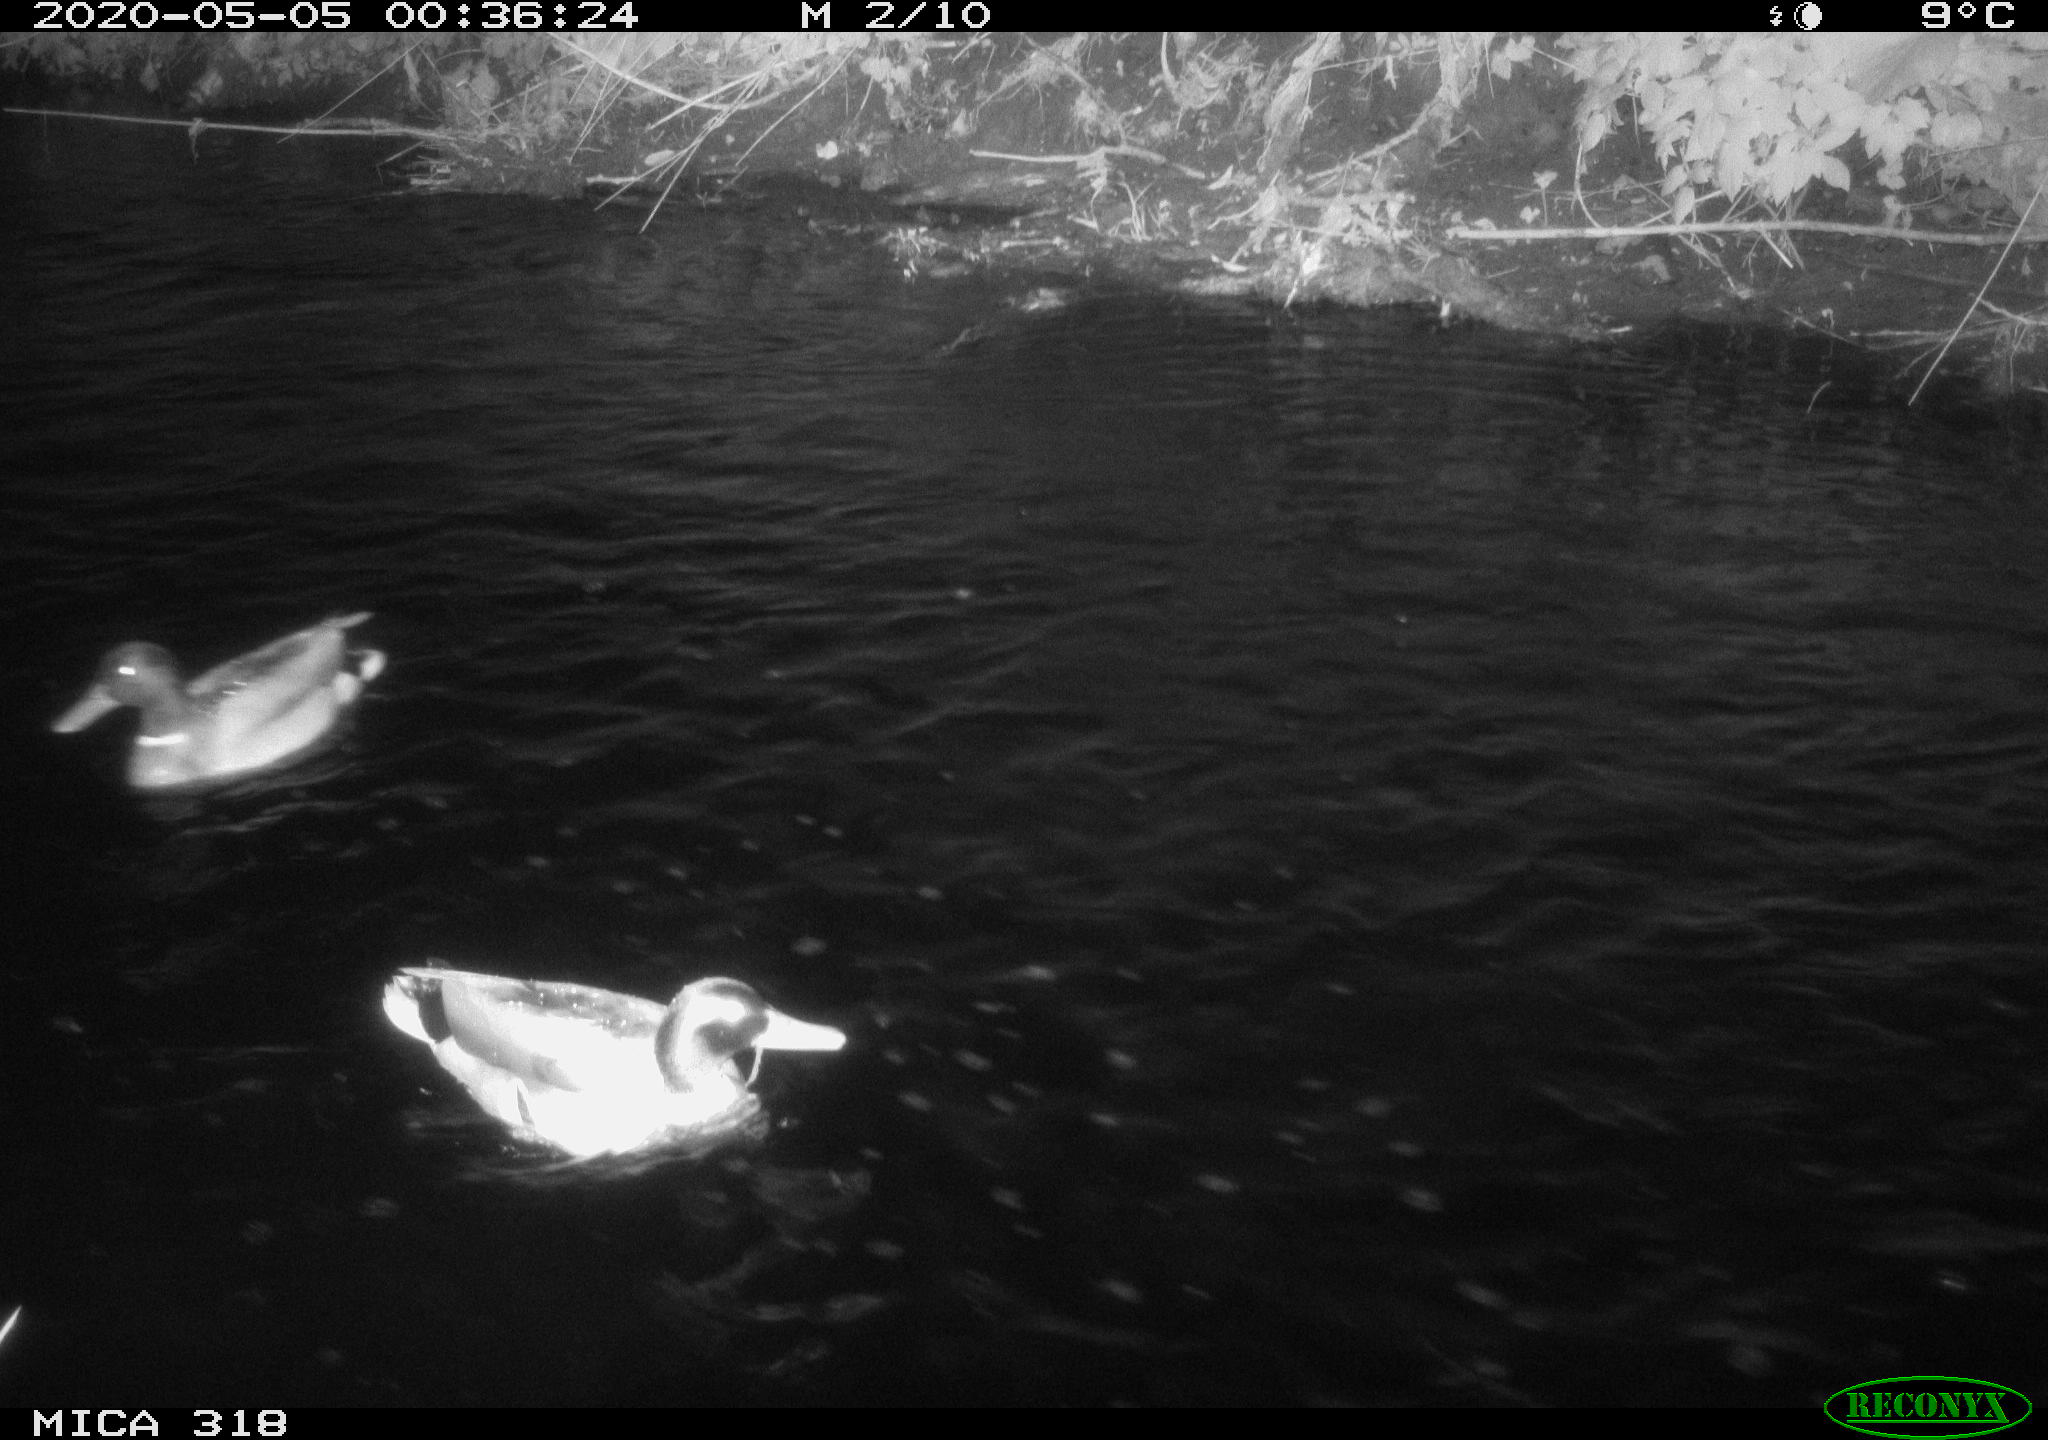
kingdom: Animalia
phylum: Chordata
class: Aves
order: Anseriformes
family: Anatidae
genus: Anas
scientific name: Anas platyrhynchos
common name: Mallard
